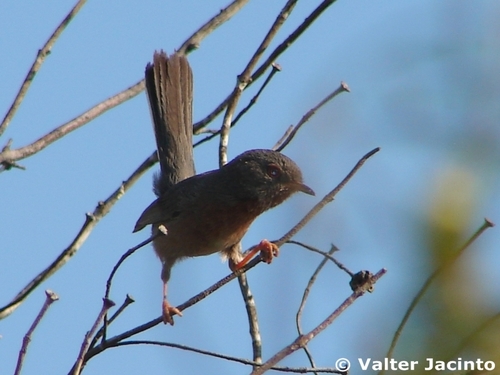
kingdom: Animalia
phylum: Chordata
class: Aves
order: Passeriformes
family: Sylviidae
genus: Sylvia
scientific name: Sylvia undata
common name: Dartford warbler
